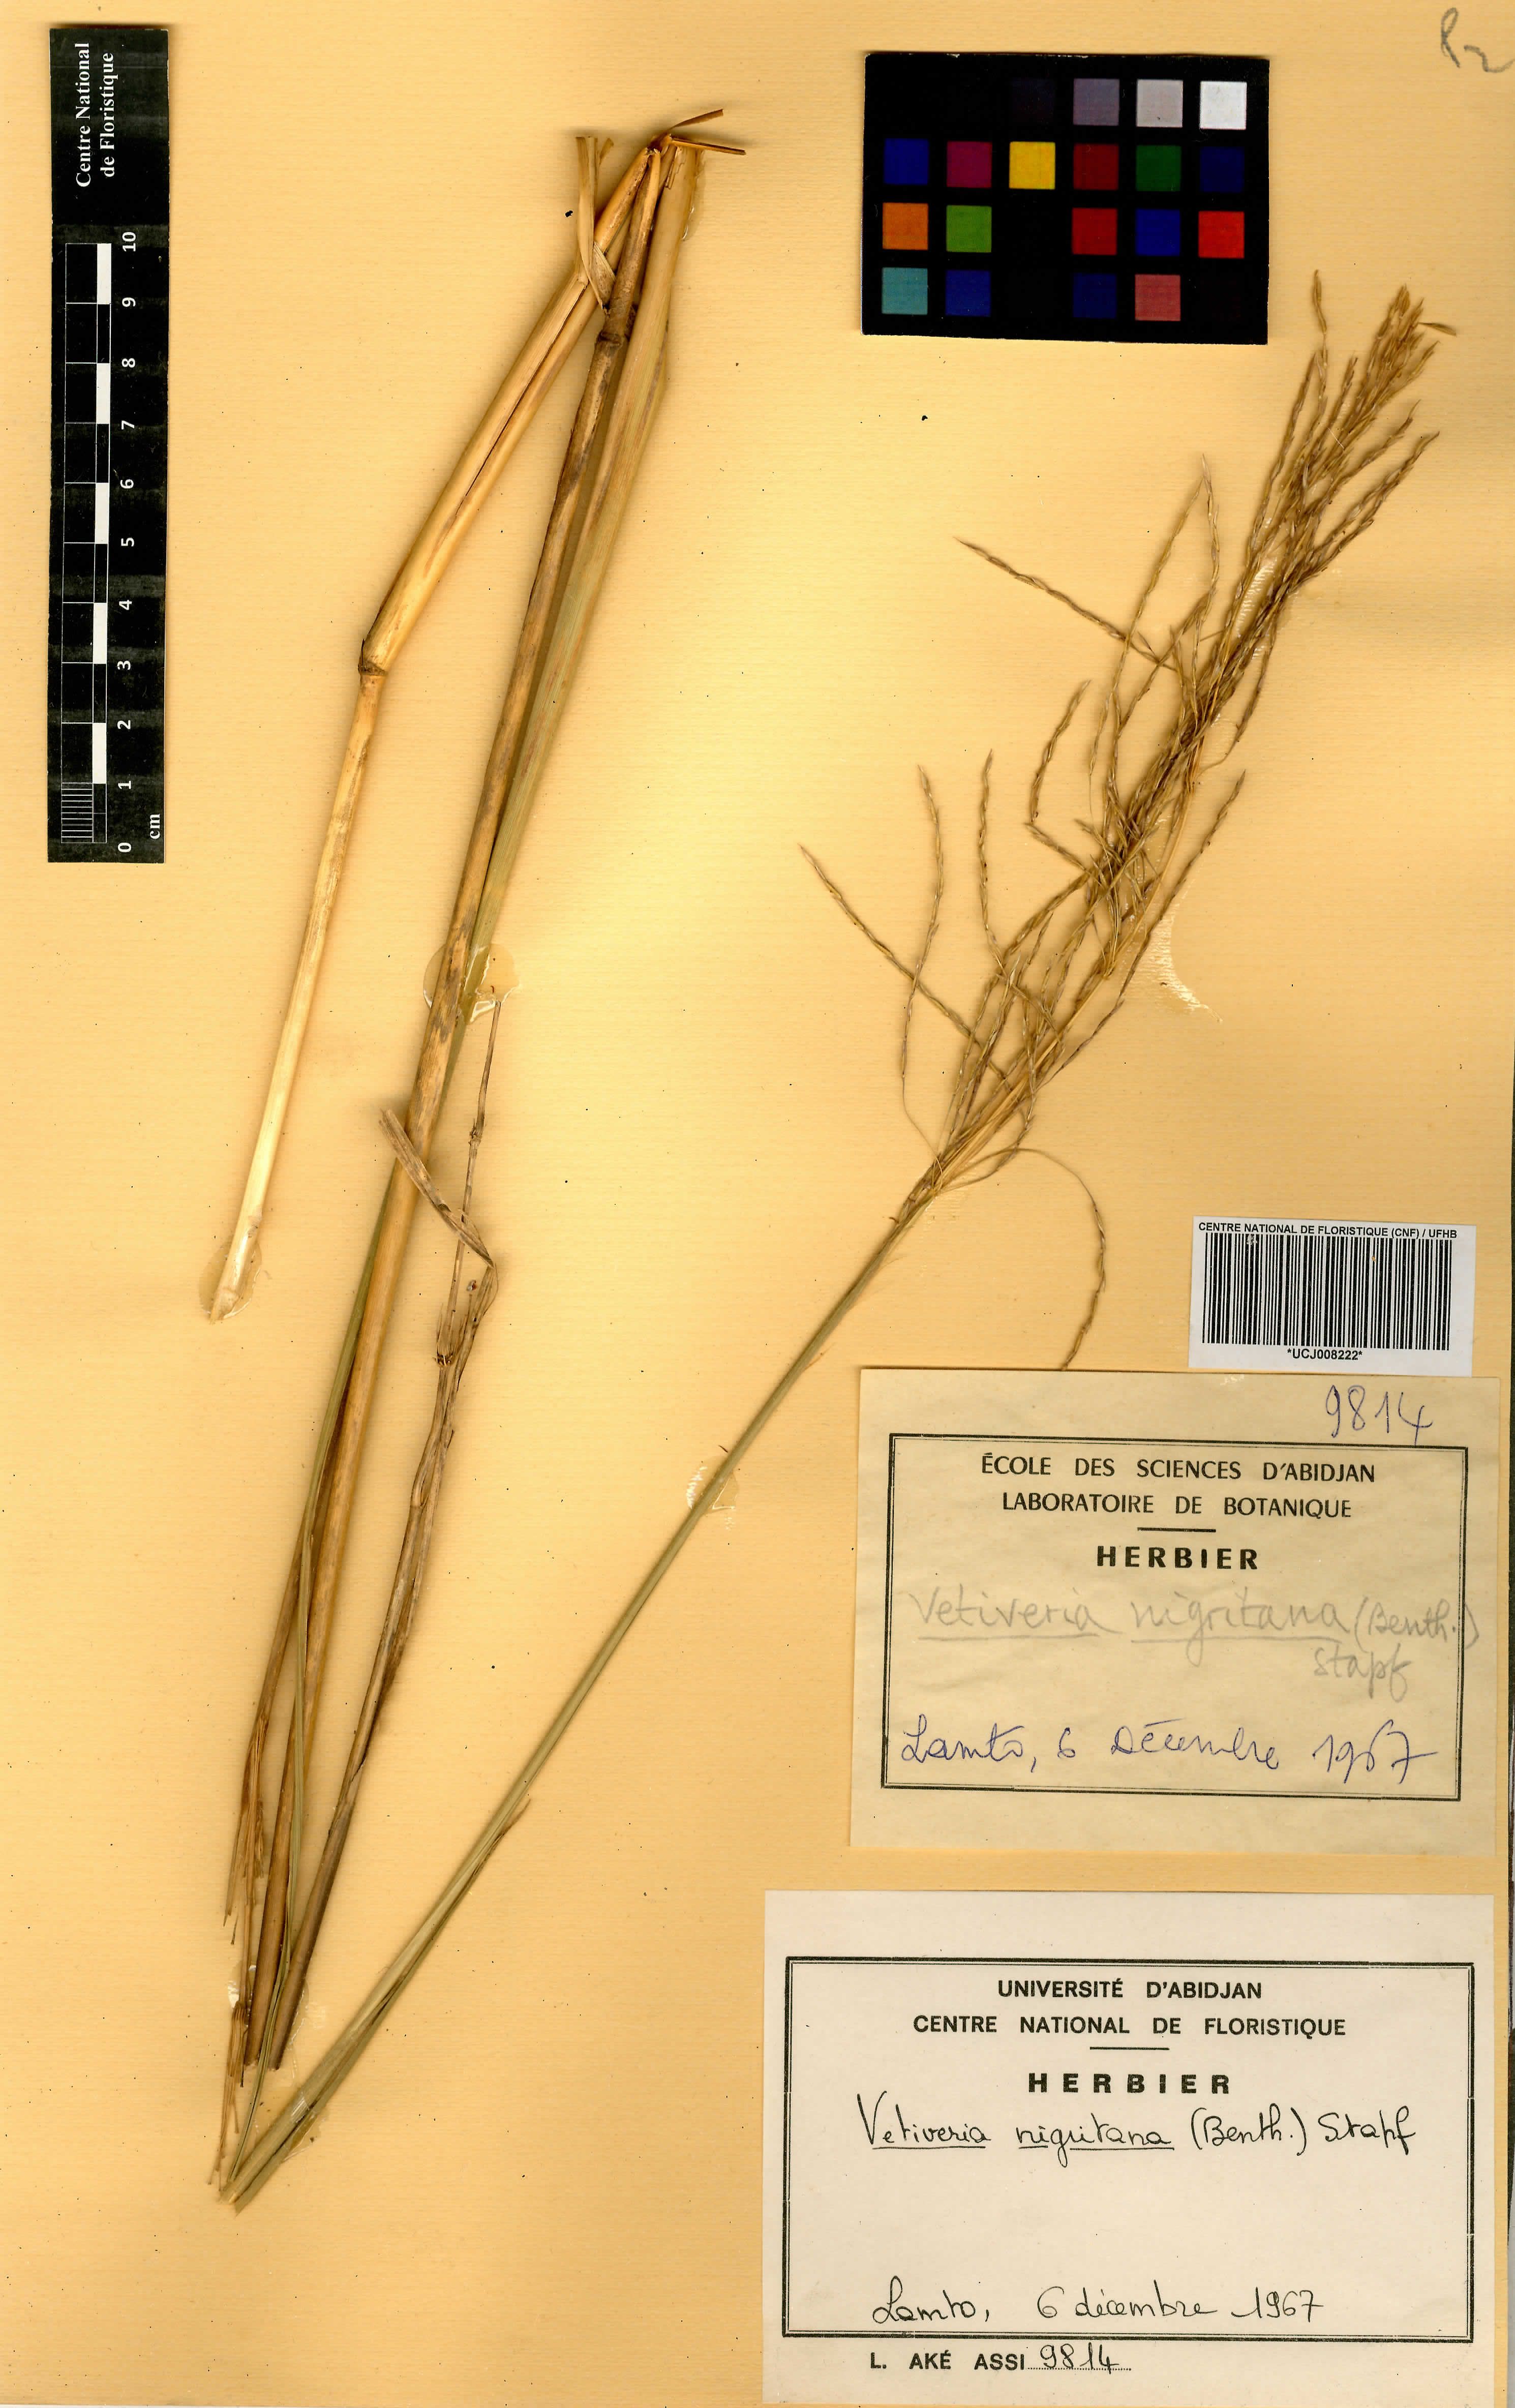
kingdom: Plantae
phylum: Tracheophyta
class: Liliopsida
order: Poales
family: Poaceae
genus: Chrysopogon
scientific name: Chrysopogon nigritanus
